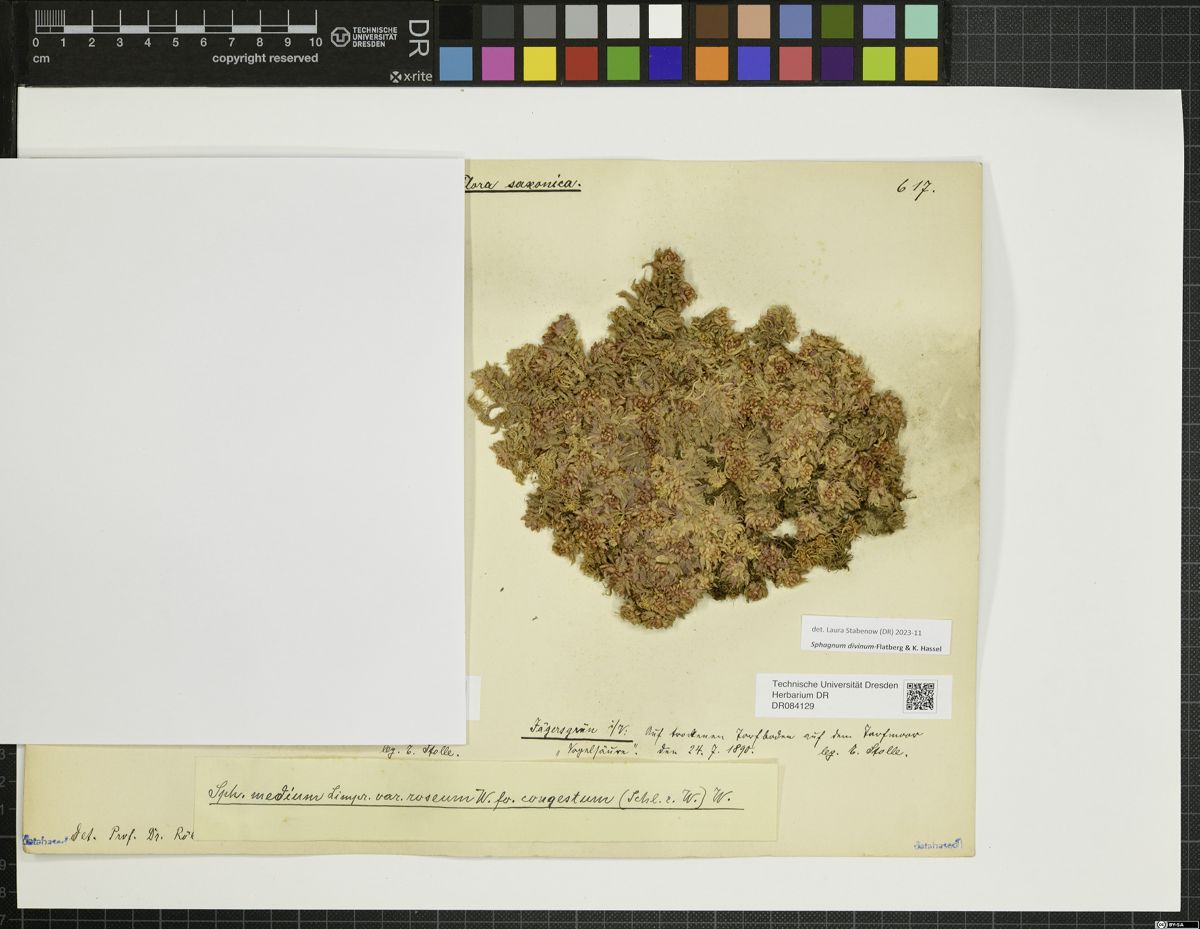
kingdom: Plantae
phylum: Bryophyta
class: Sphagnopsida
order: Sphagnales
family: Sphagnaceae
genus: Sphagnum
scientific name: Sphagnum divinum
